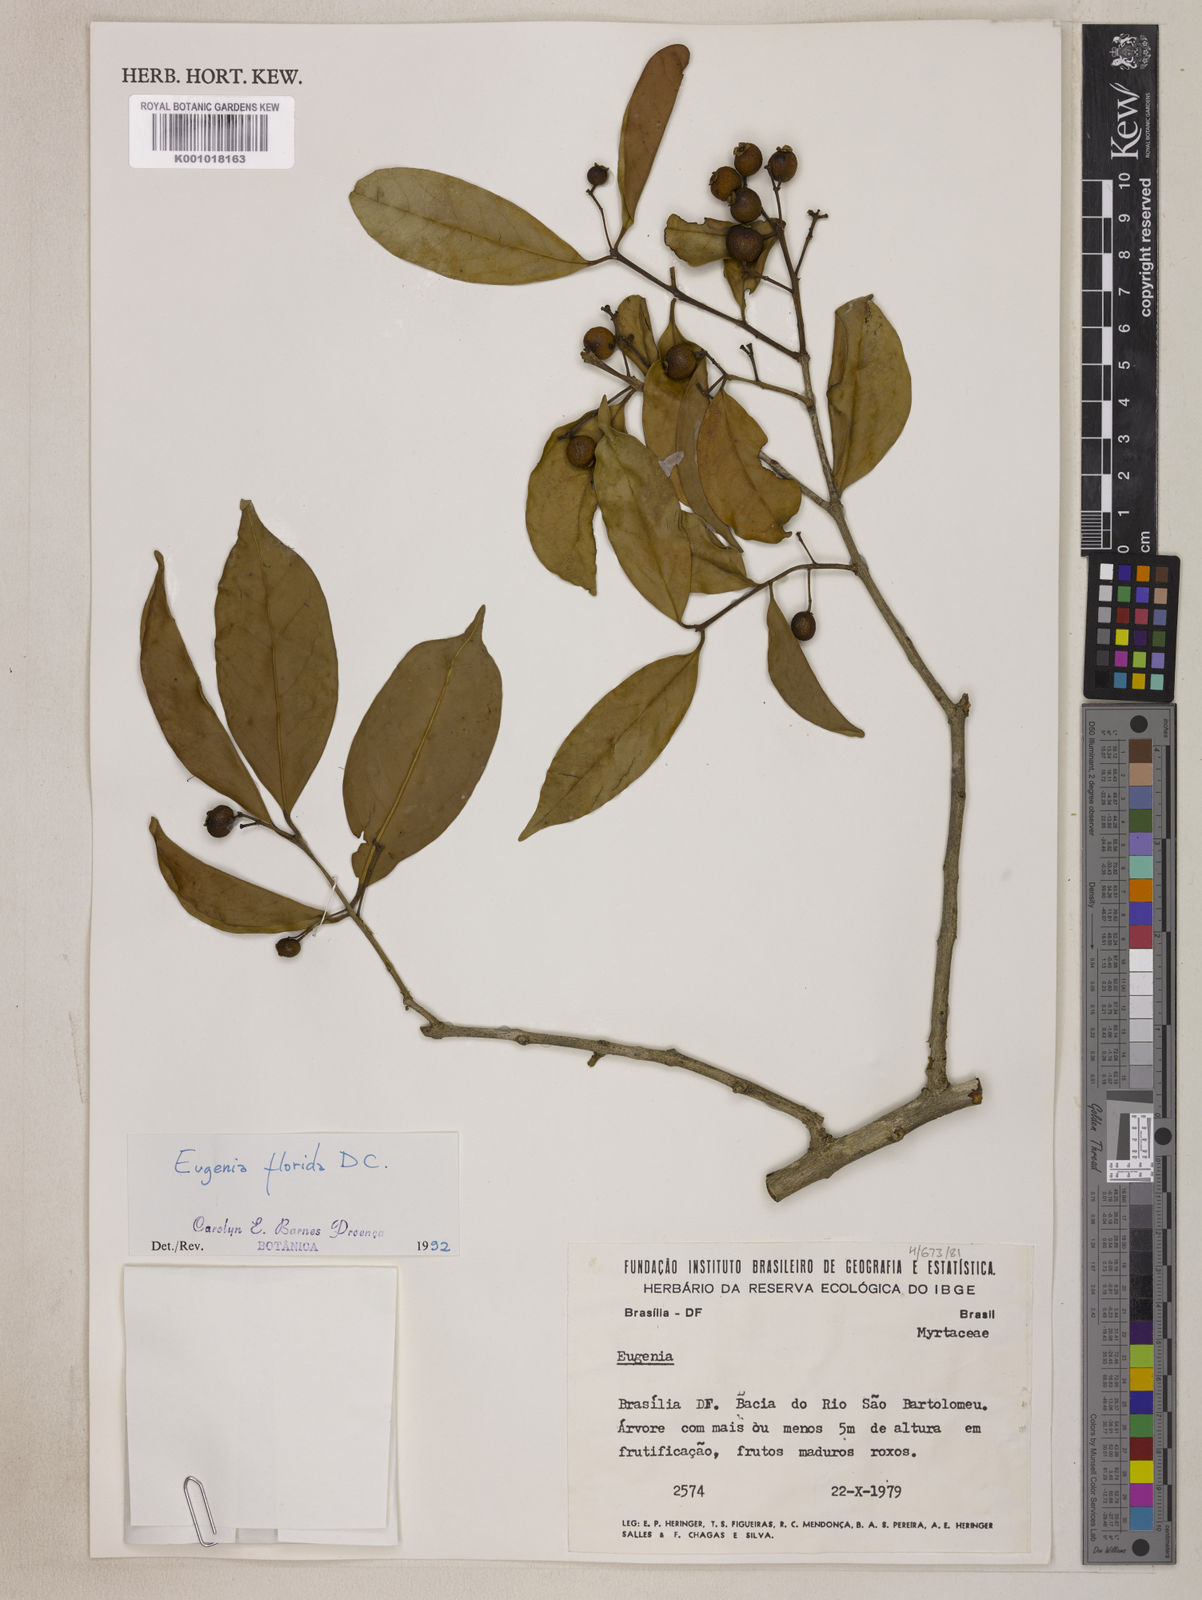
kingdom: Plantae
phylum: Tracheophyta
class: Magnoliopsida
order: Myrtales
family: Myrtaceae
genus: Eugenia
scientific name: Eugenia florida
